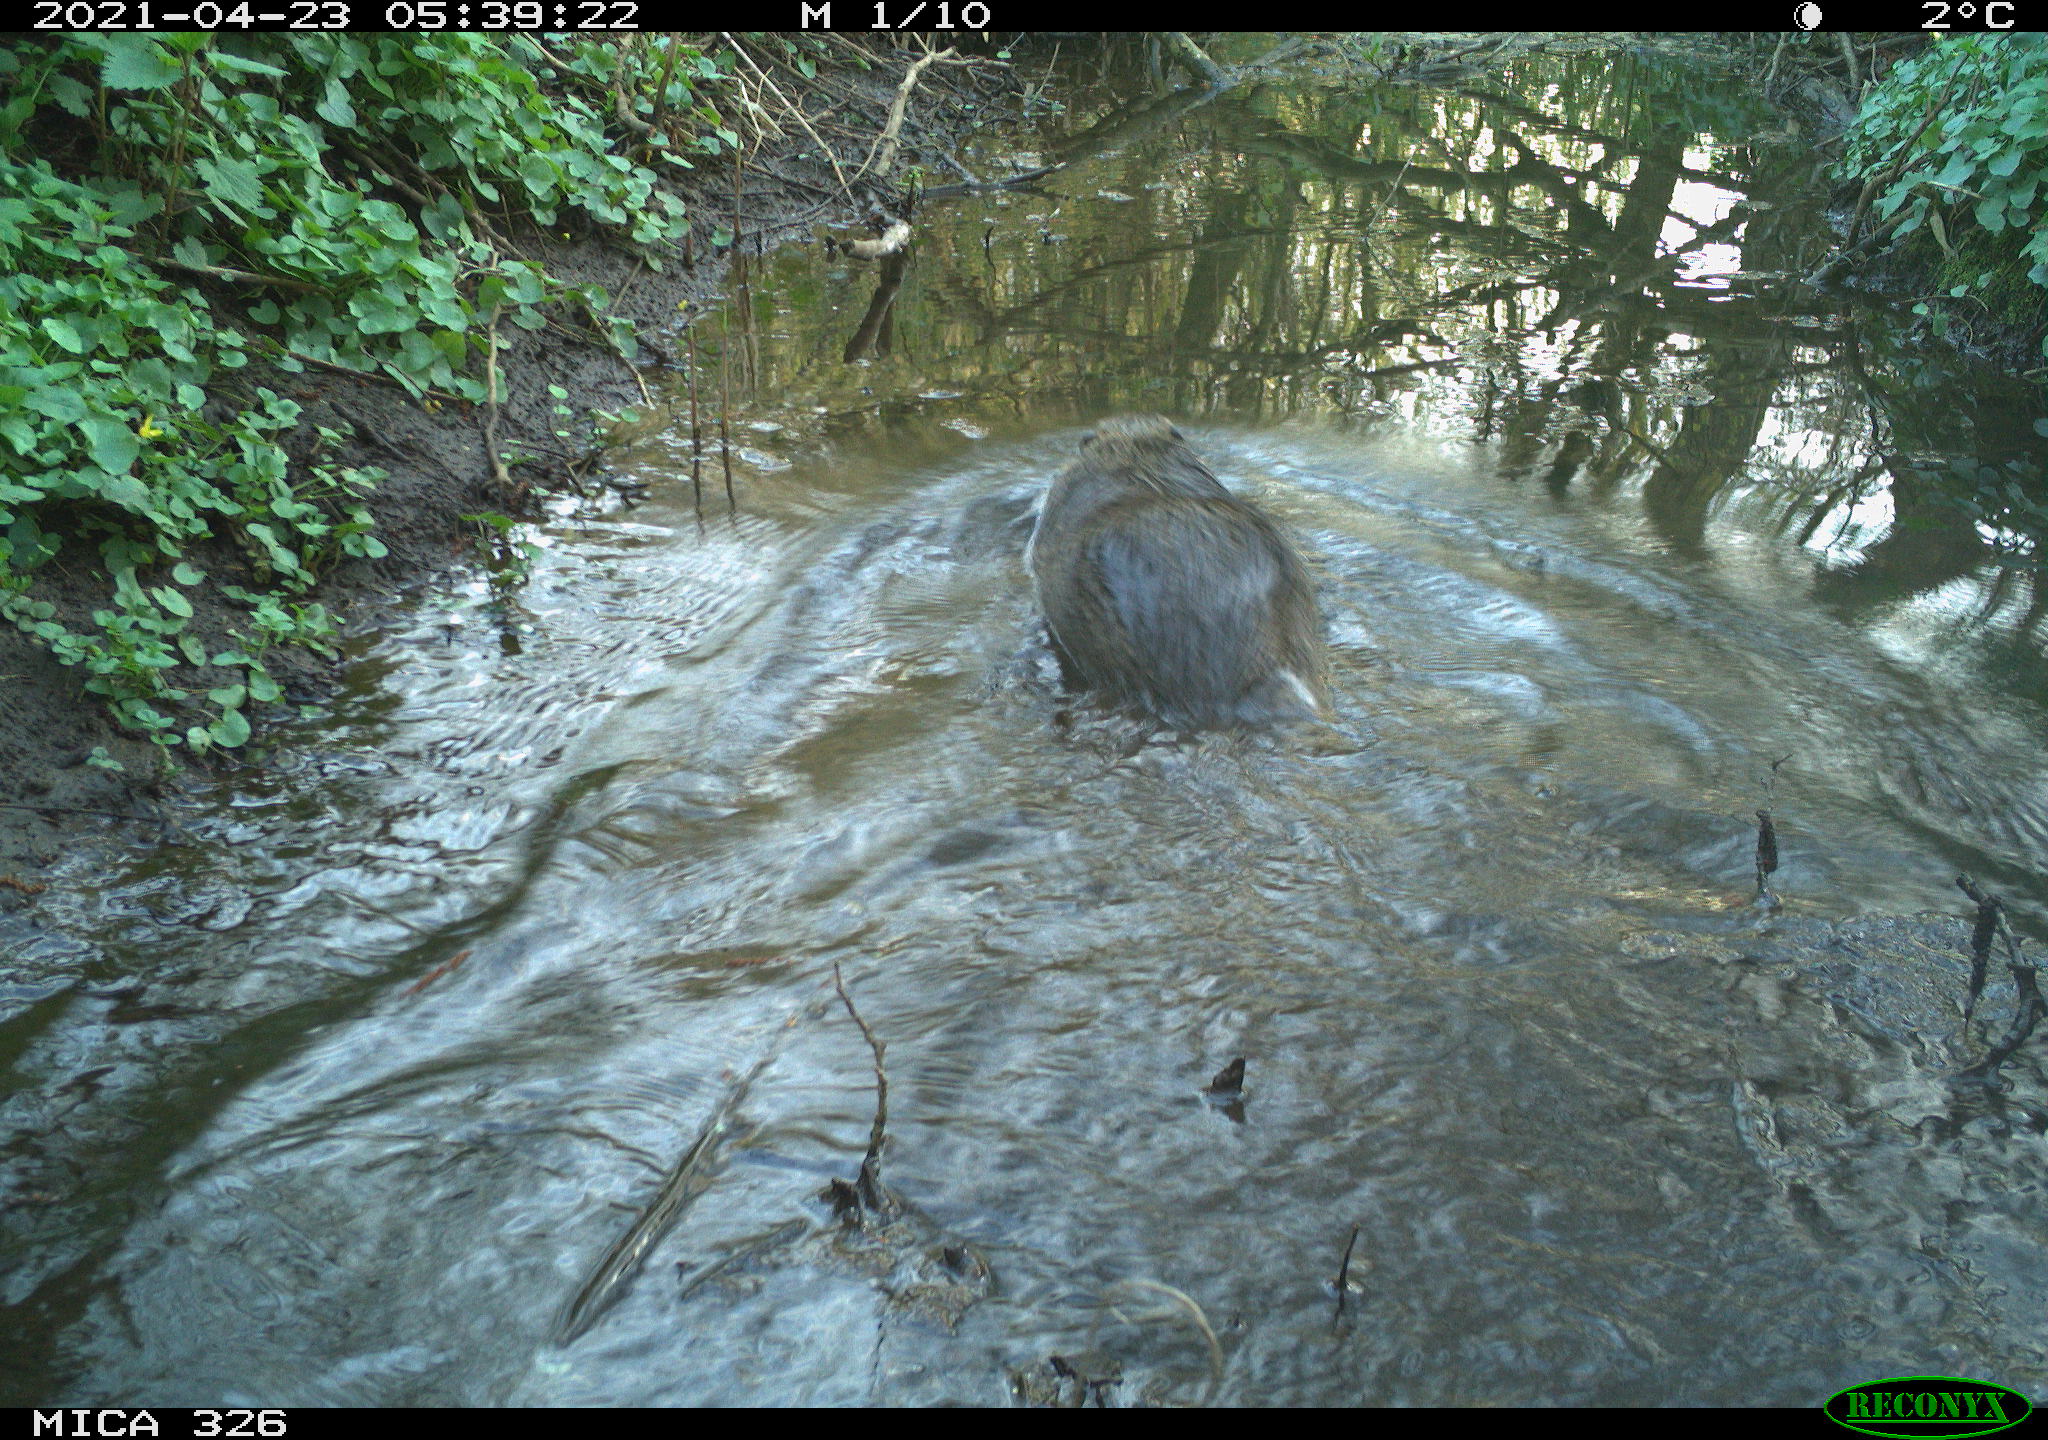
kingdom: Animalia
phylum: Chordata
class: Mammalia
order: Rodentia
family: Myocastoridae
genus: Myocastor
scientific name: Myocastor coypus
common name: Coypu
